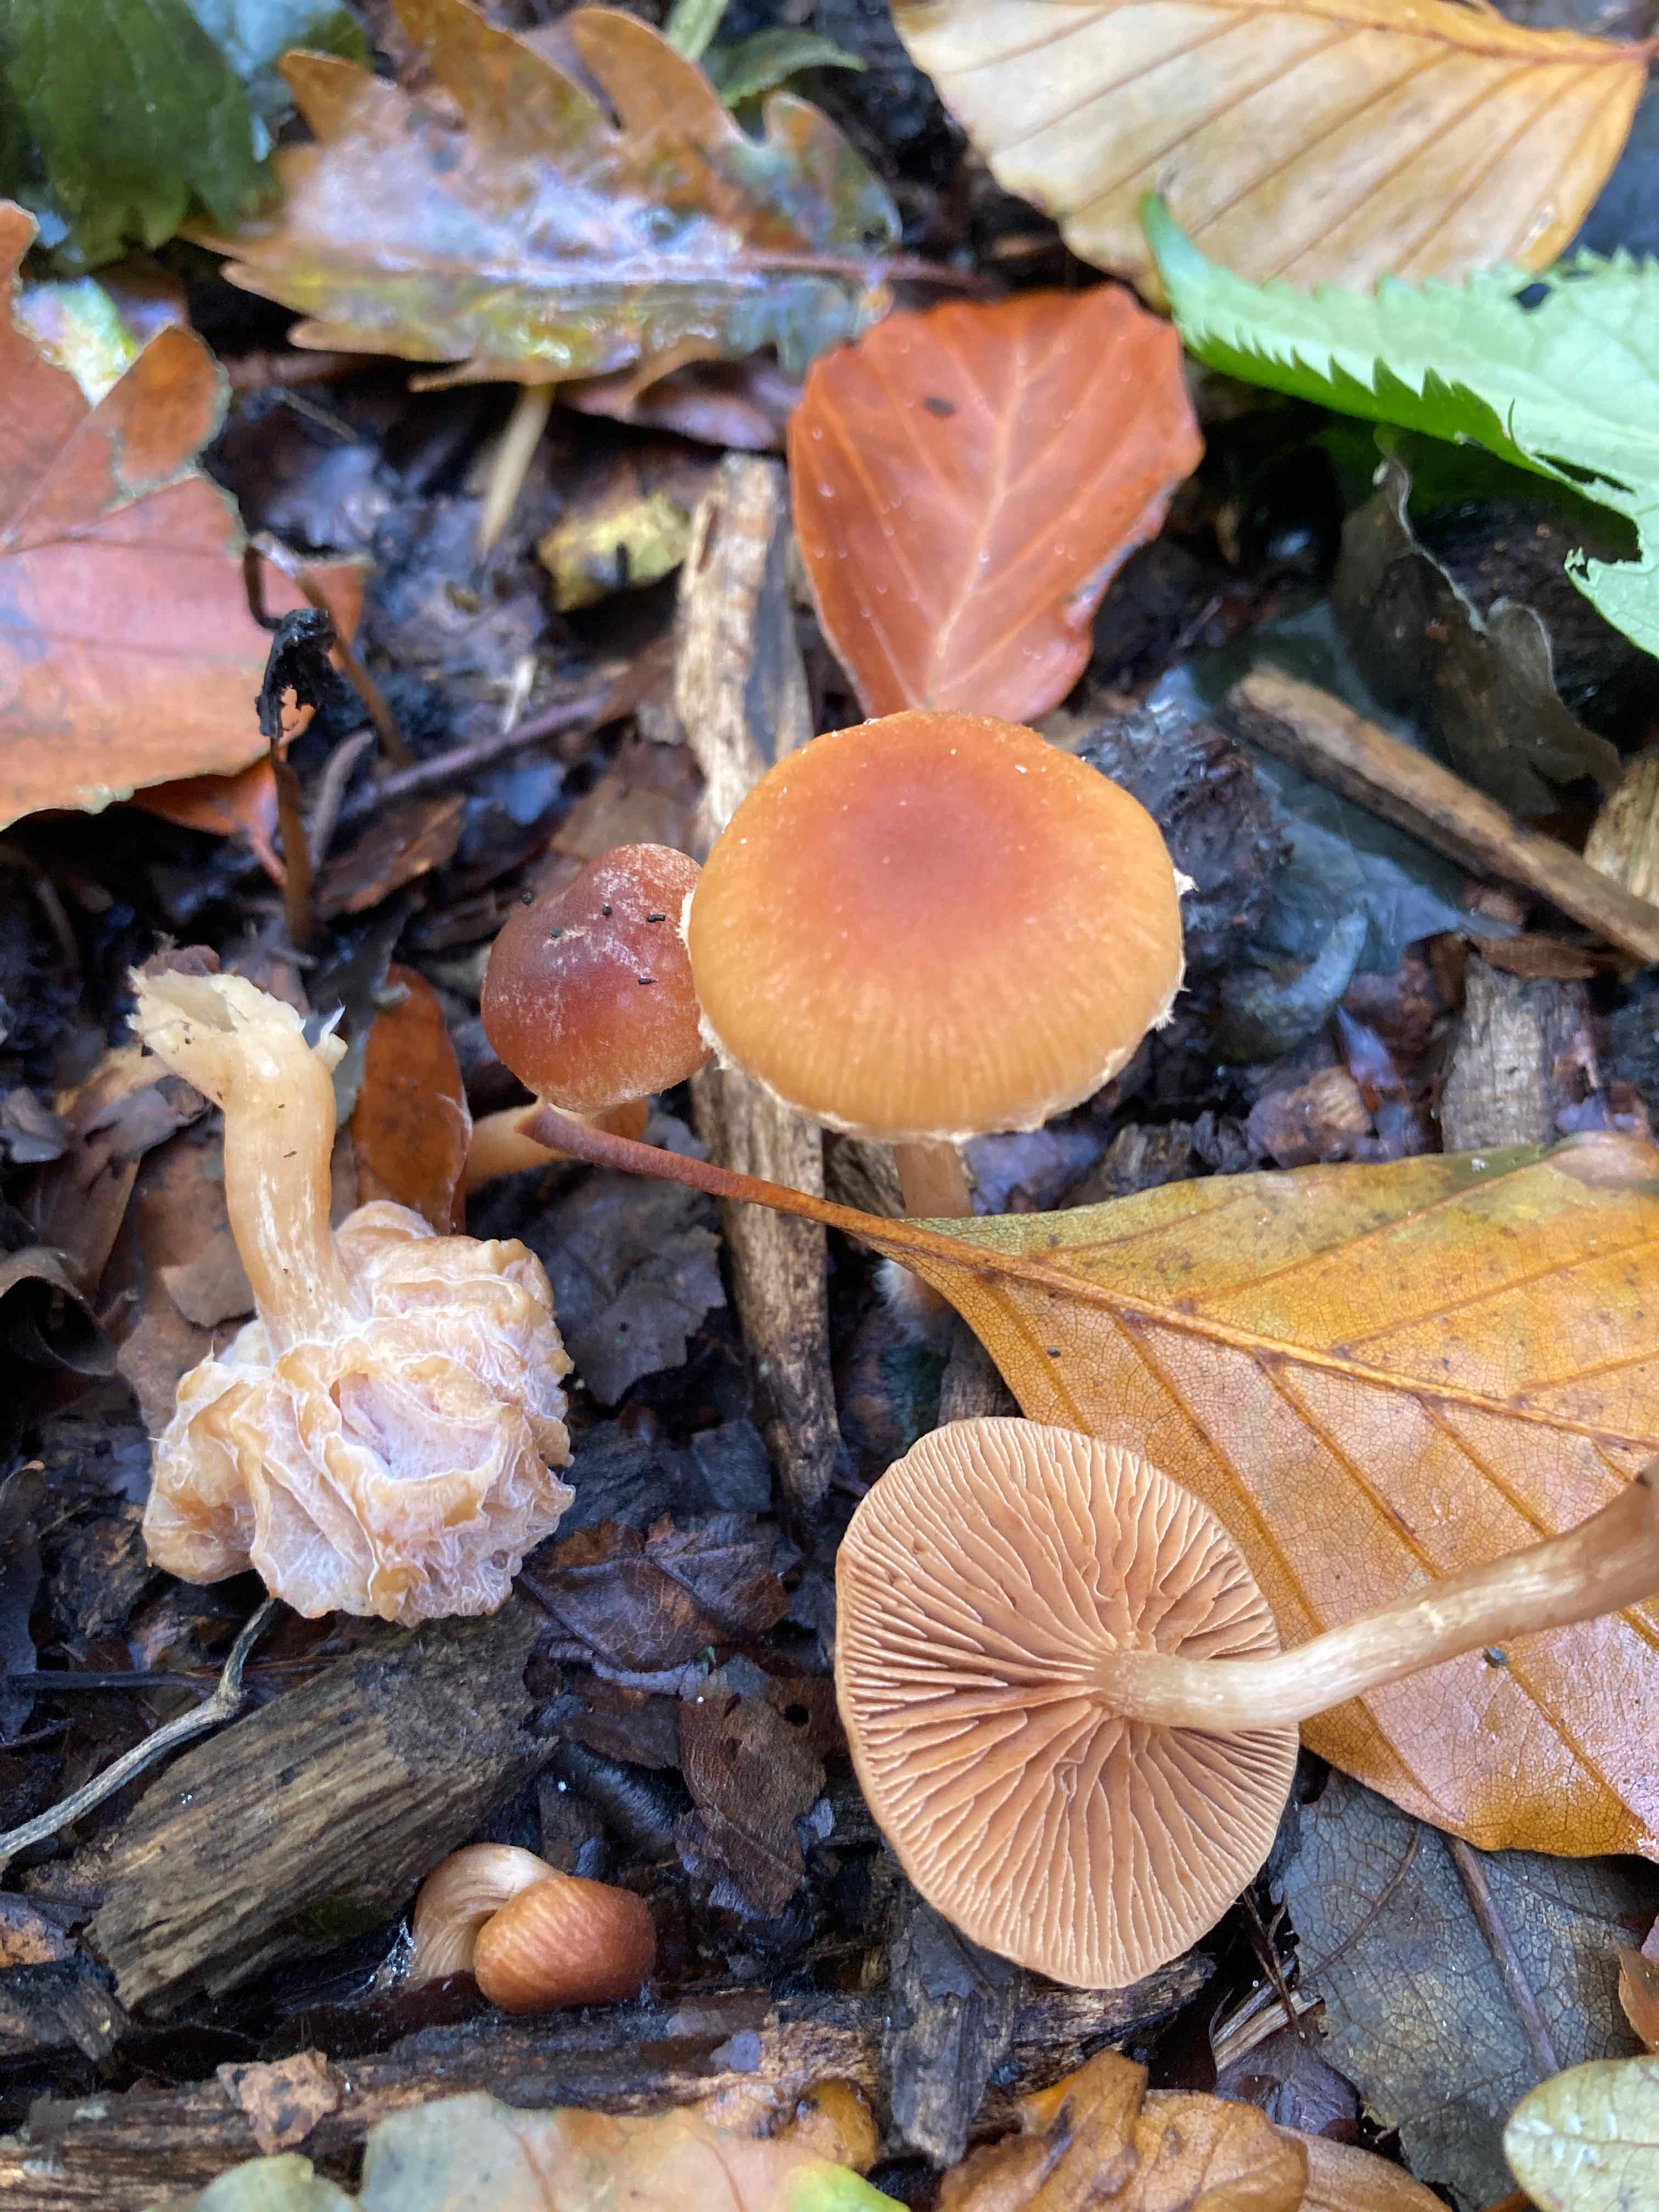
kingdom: Fungi
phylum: Ascomycota
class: Sordariomycetes
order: Hypocreales
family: Hypocreaceae
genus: Hypomyces
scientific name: Hypomyces tubariicola
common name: fnughat-snylteskorpe
